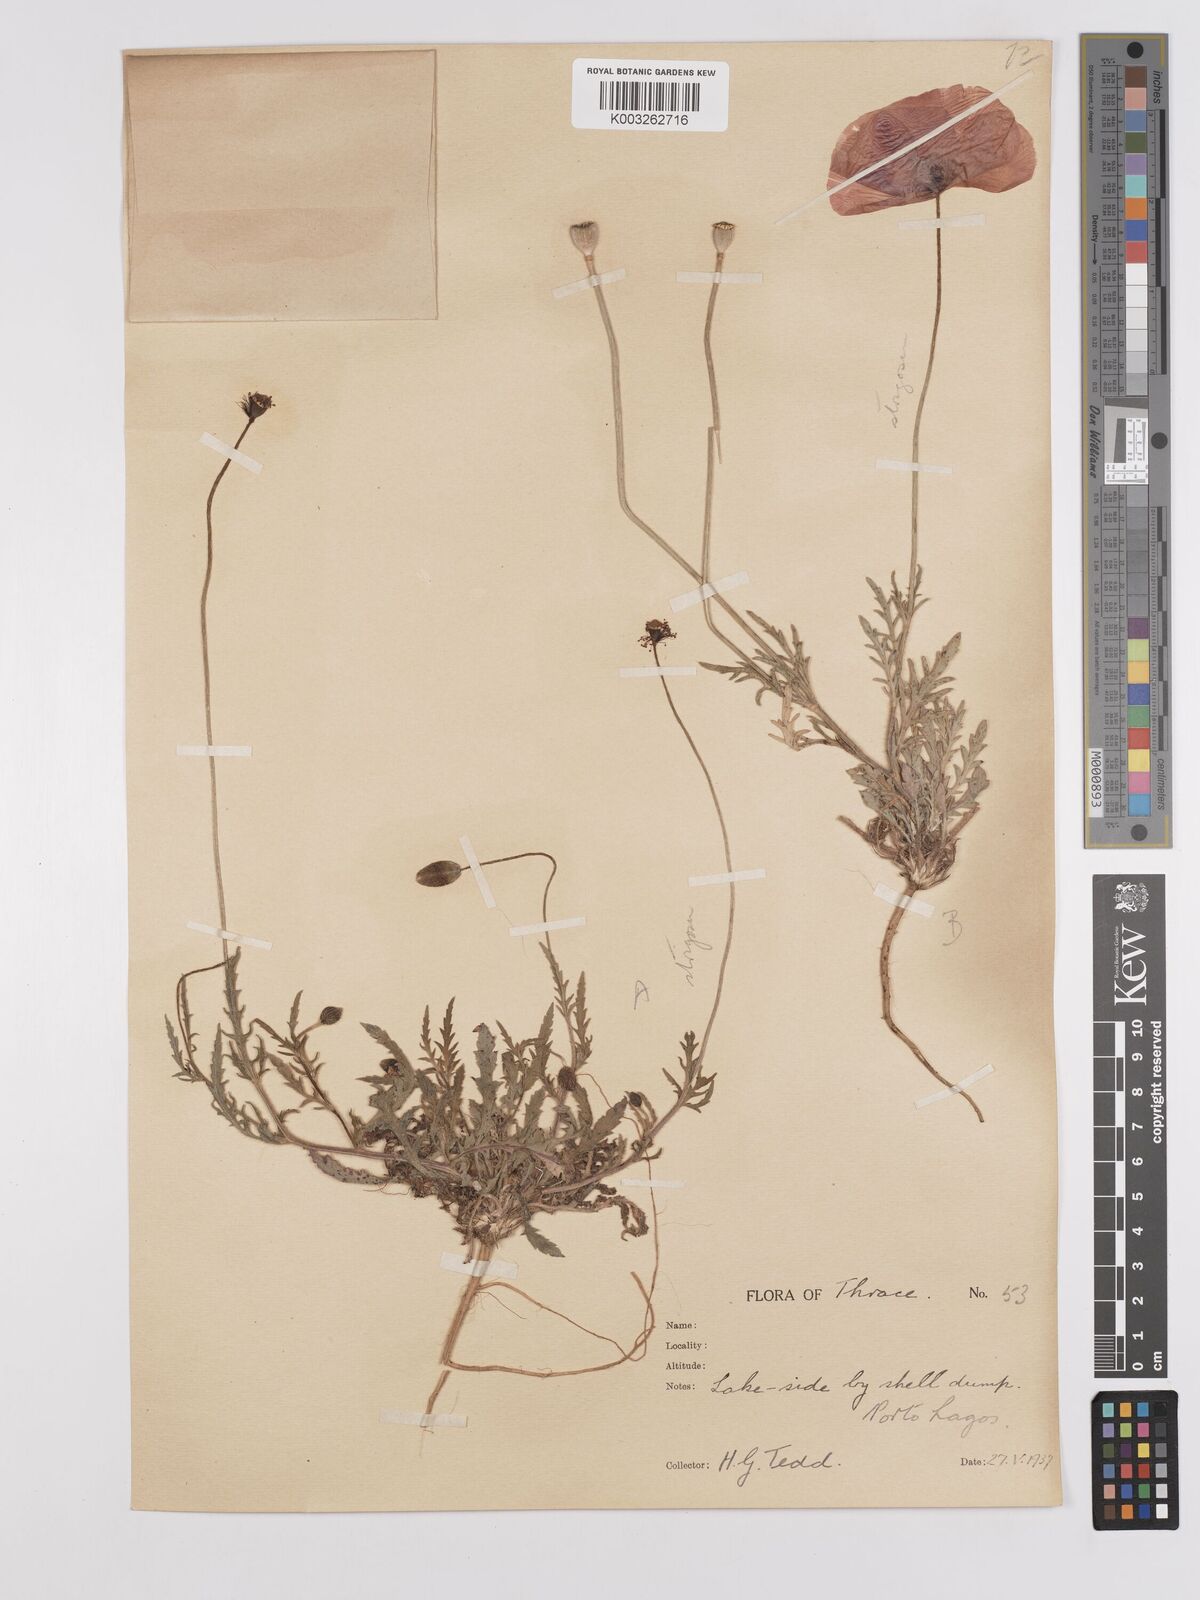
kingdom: Plantae
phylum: Tracheophyta
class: Magnoliopsida
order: Ranunculales
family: Papaveraceae
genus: Papaver
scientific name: Papaver
